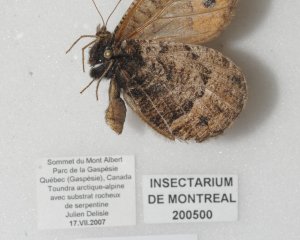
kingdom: Animalia
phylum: Arthropoda
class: Insecta
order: Lepidoptera
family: Nymphalidae
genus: Oeneis
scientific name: Oeneis chryxus
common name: Chryxus Arctic
